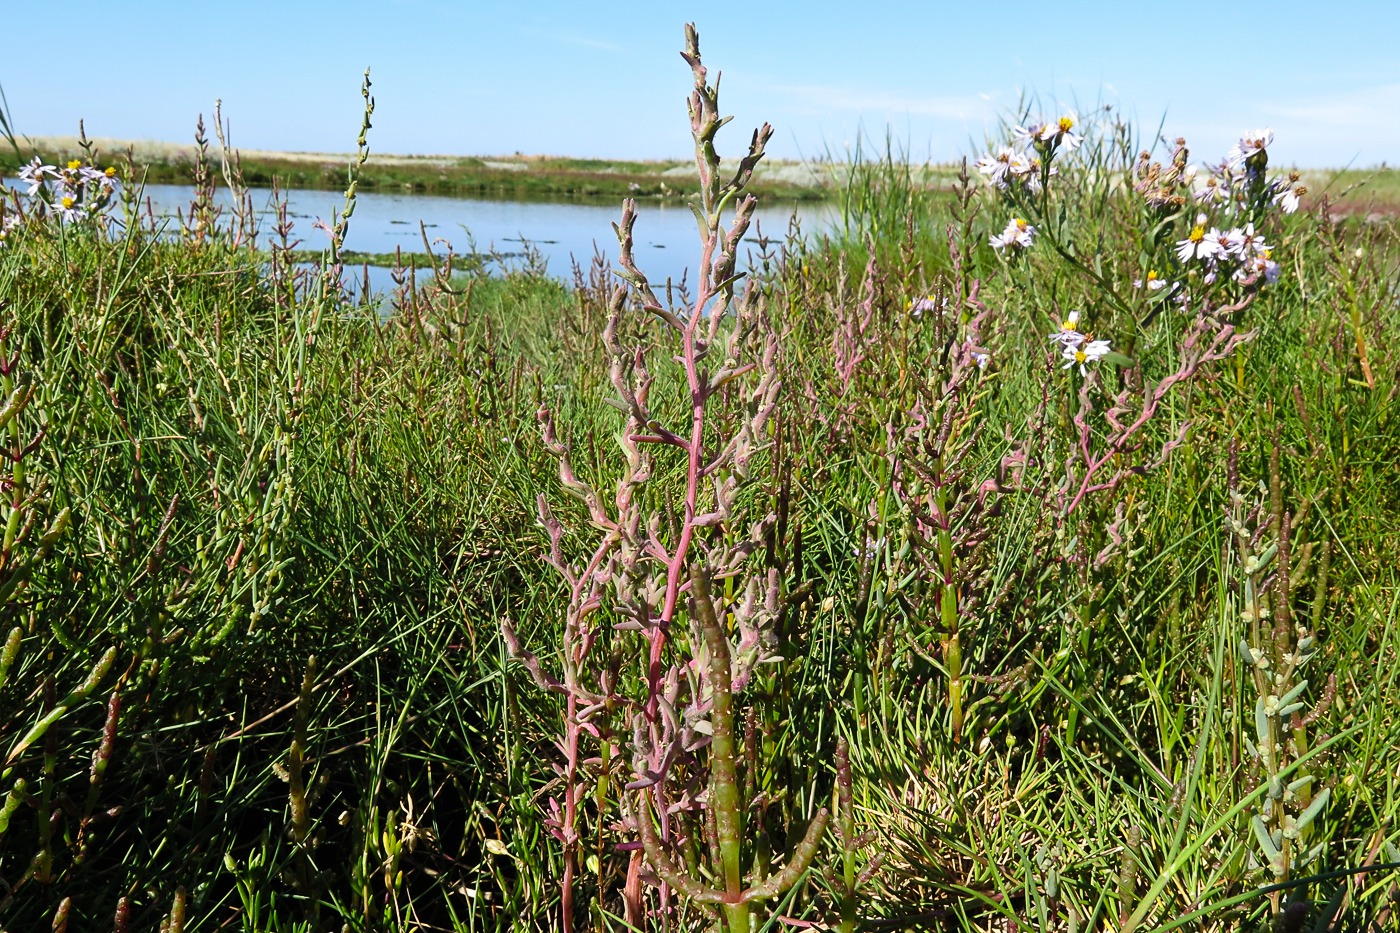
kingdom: Plantae
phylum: Tracheophyta
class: Magnoliopsida
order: Caryophyllales
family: Amaranthaceae
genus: Spirobassia
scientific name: Spirobassia hirsuta
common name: Tangurt
